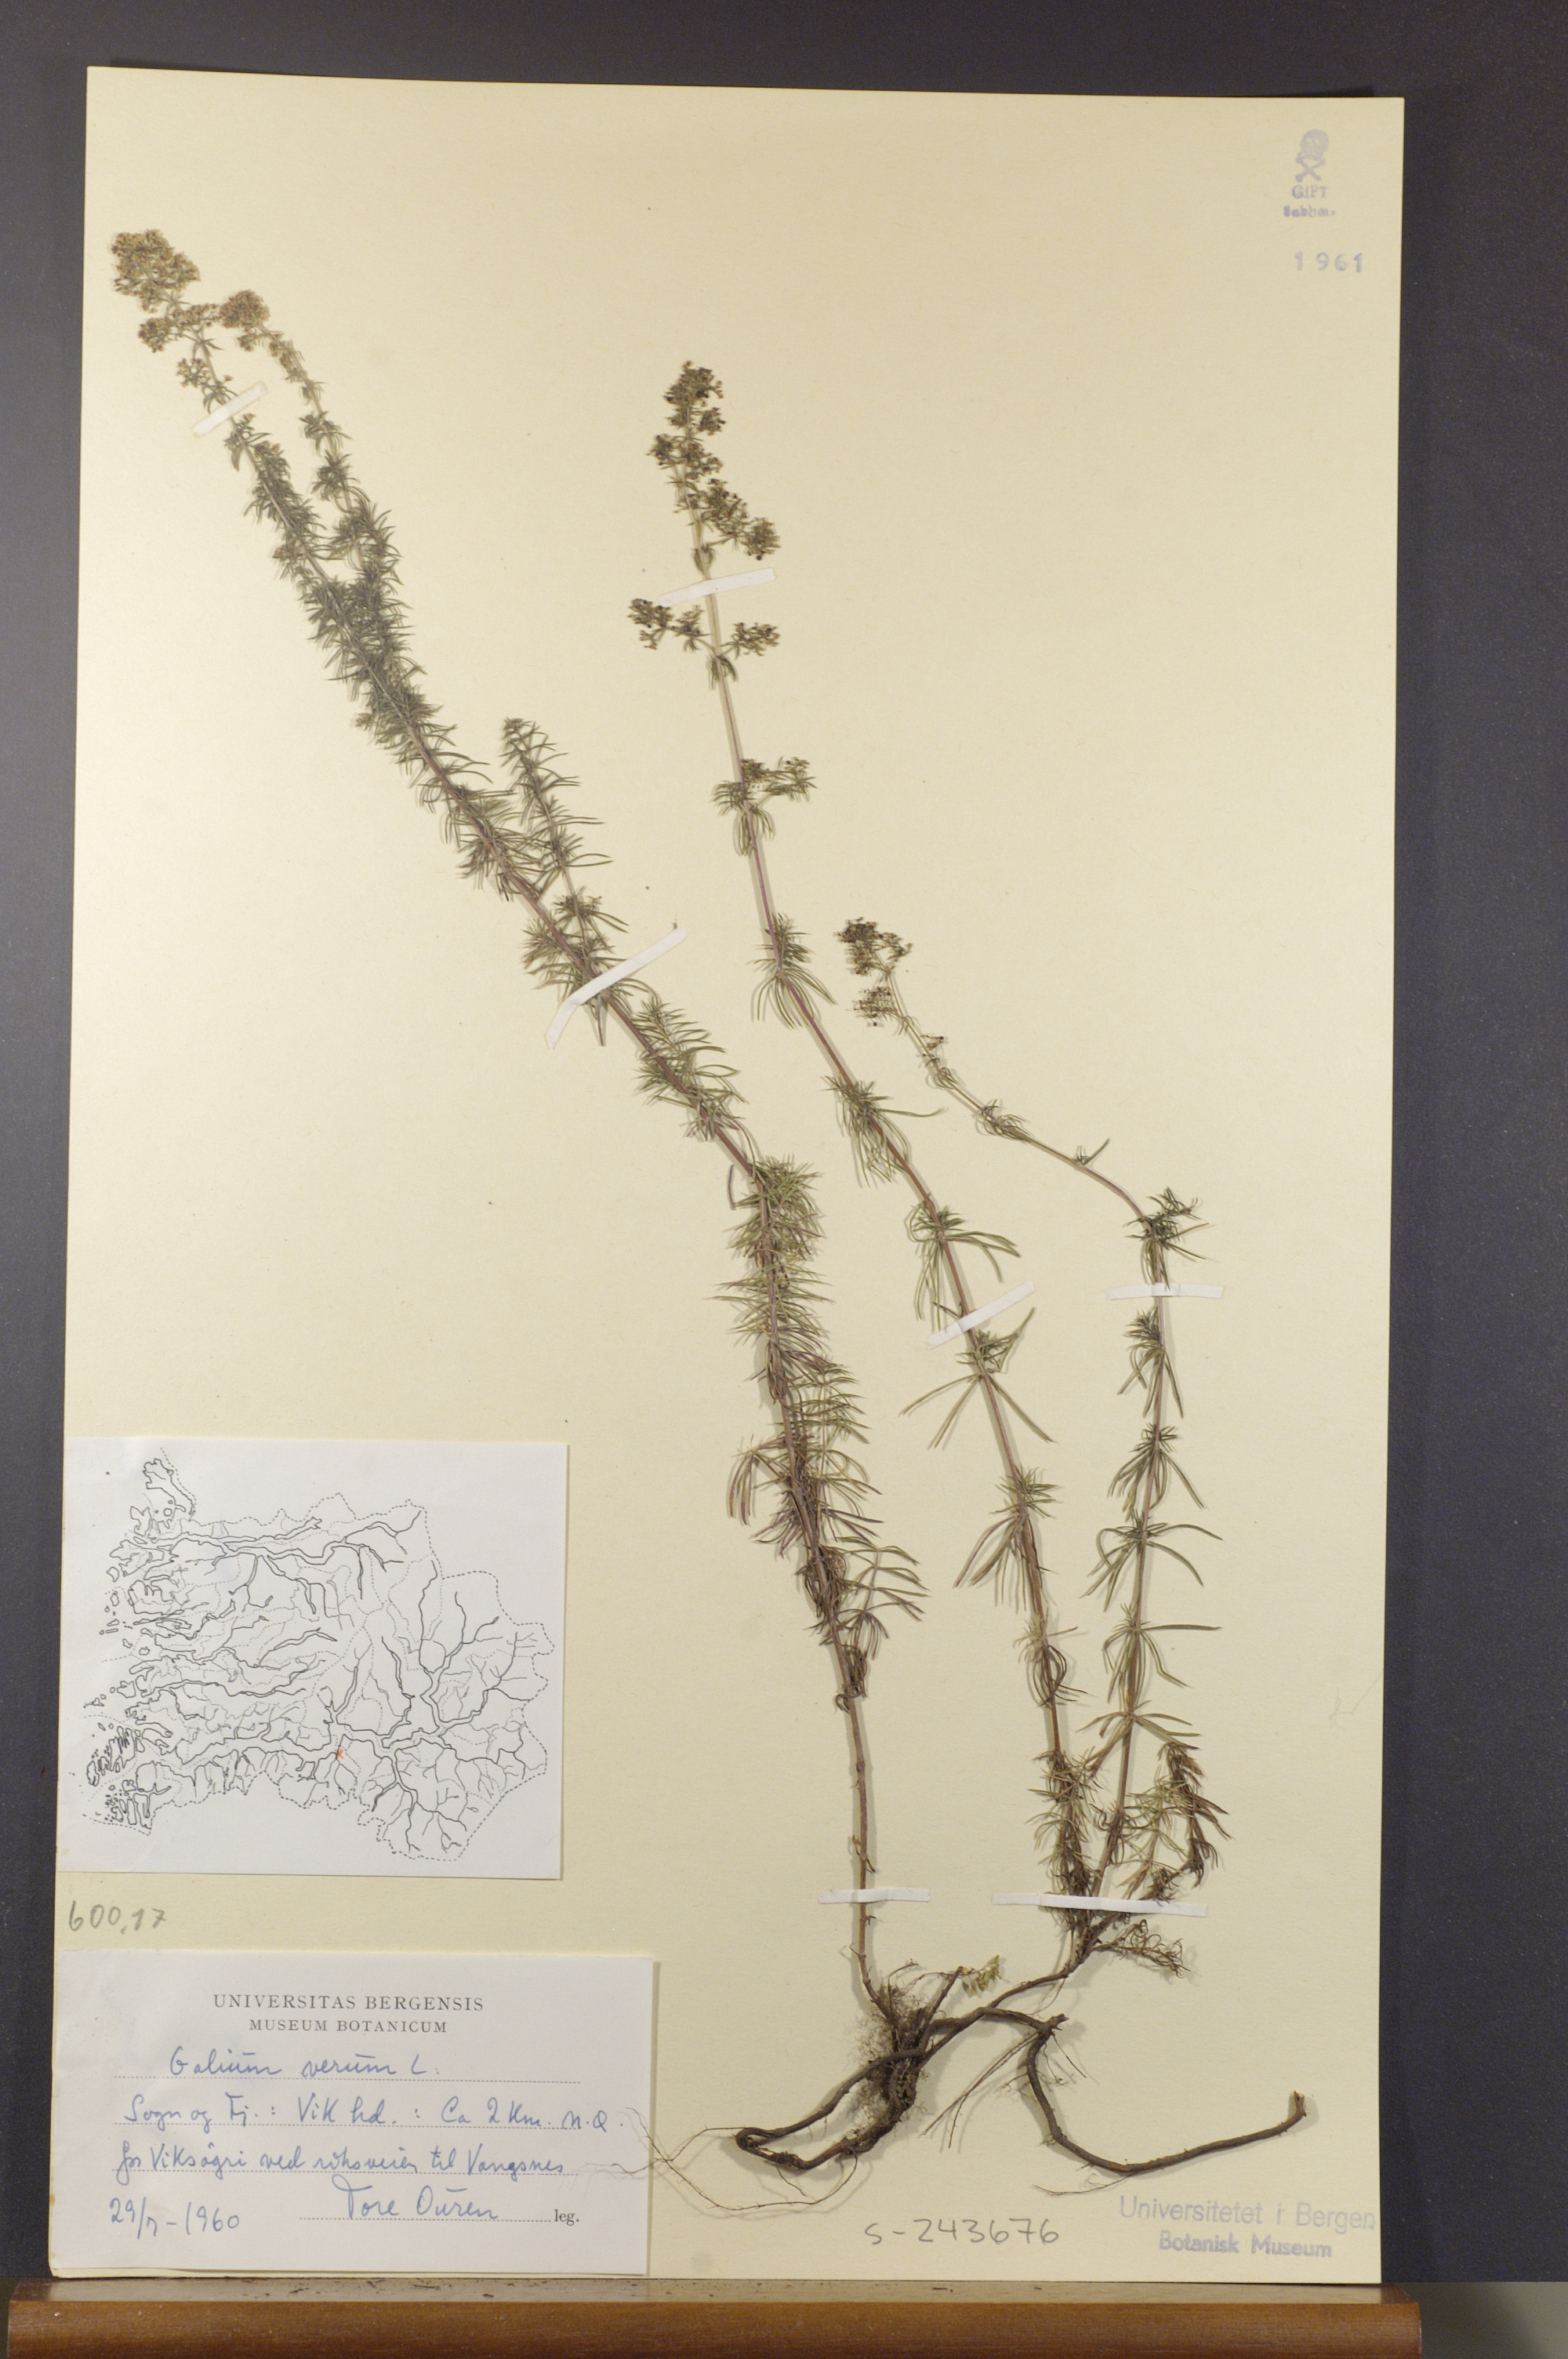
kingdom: Plantae
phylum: Tracheophyta
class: Magnoliopsida
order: Gentianales
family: Rubiaceae
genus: Galium
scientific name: Galium verum
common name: Lady's bedstraw
